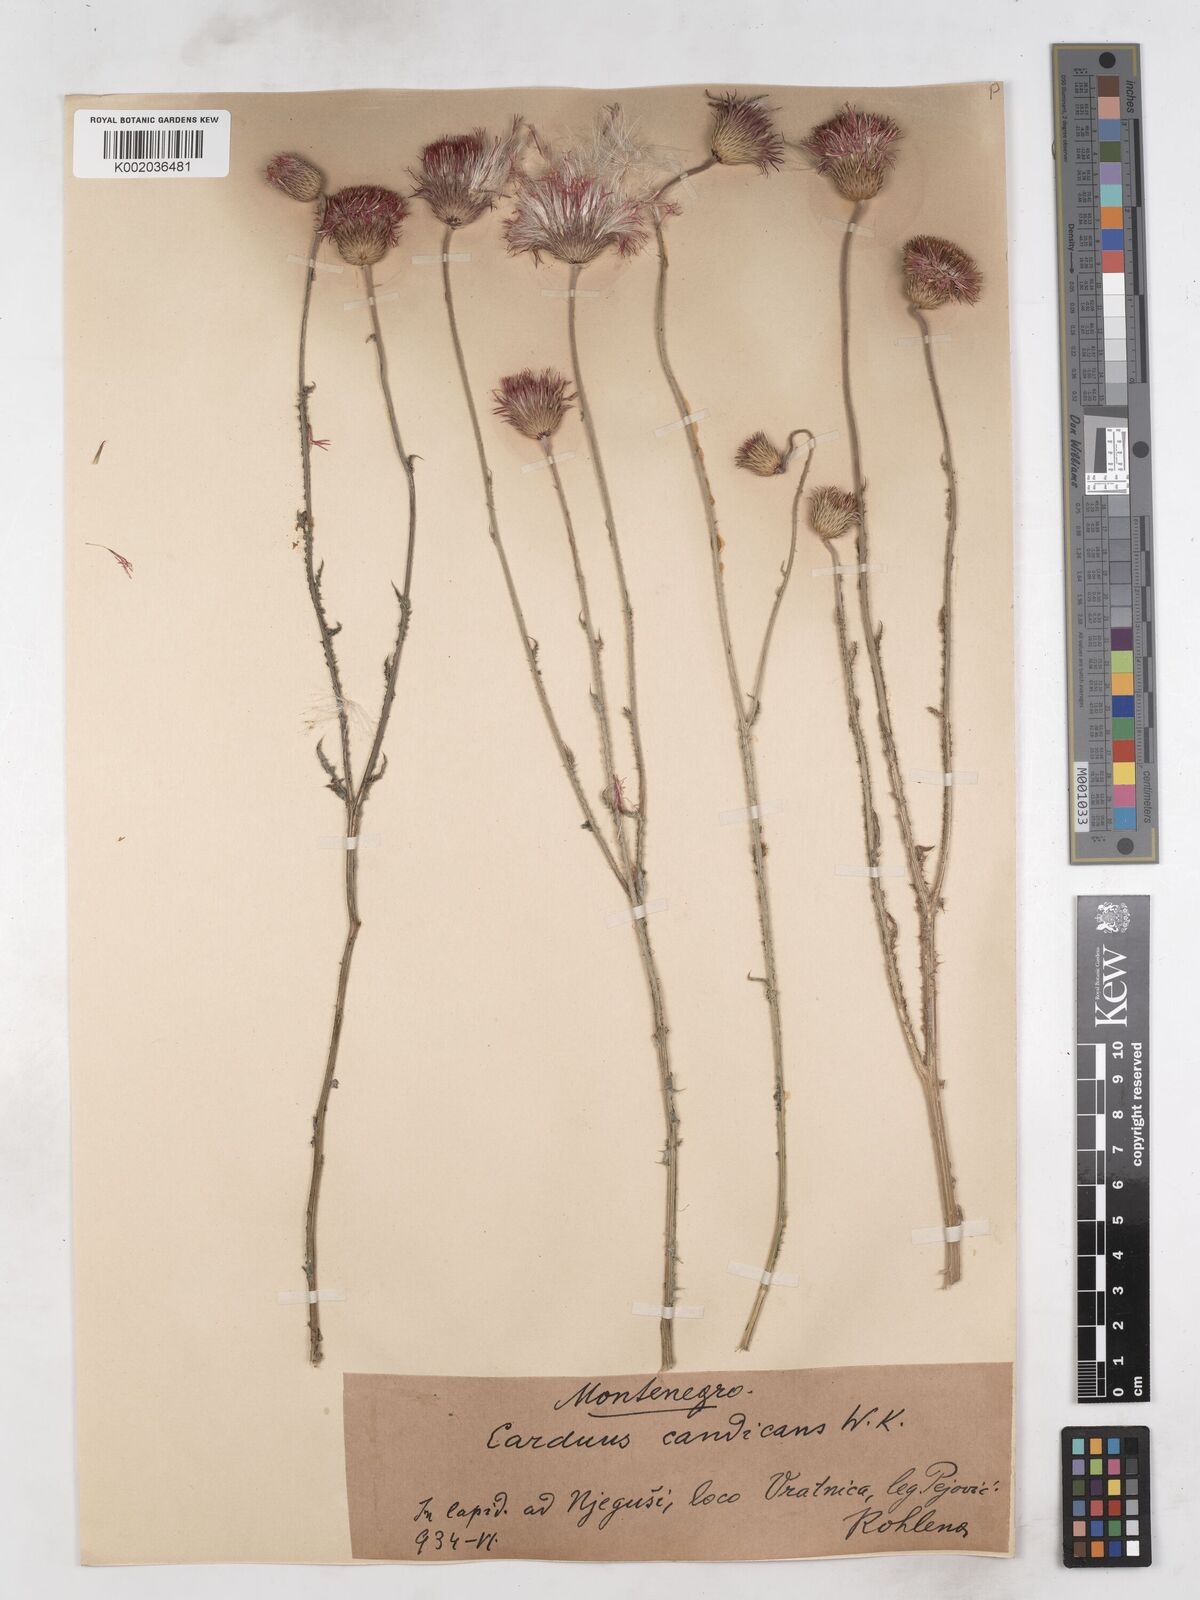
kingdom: Plantae
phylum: Tracheophyta
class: Magnoliopsida
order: Asterales
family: Asteraceae
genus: Carduus
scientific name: Carduus candicans
